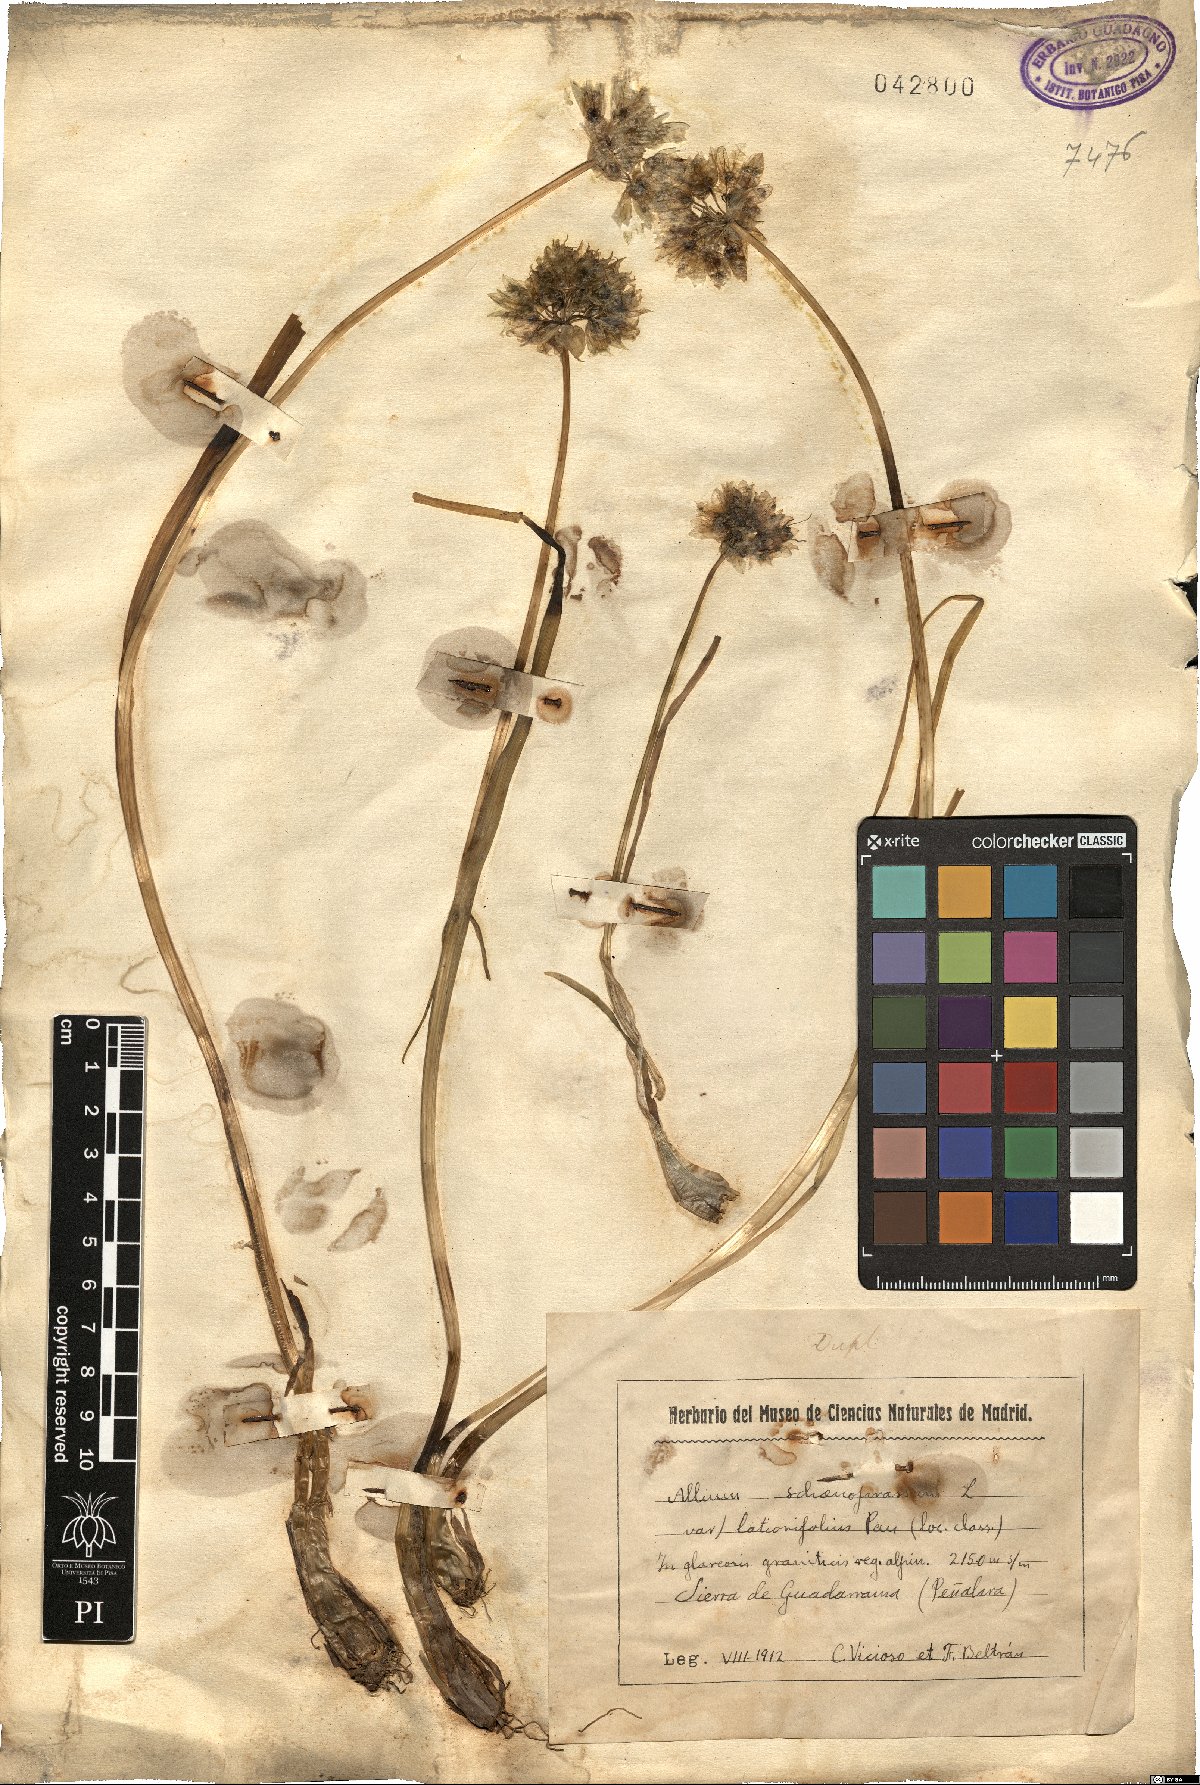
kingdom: Plantae
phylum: Tracheophyta
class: Liliopsida
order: Asparagales
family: Amaryllidaceae
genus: Allium
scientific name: Allium schoenoprasum
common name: Chives
